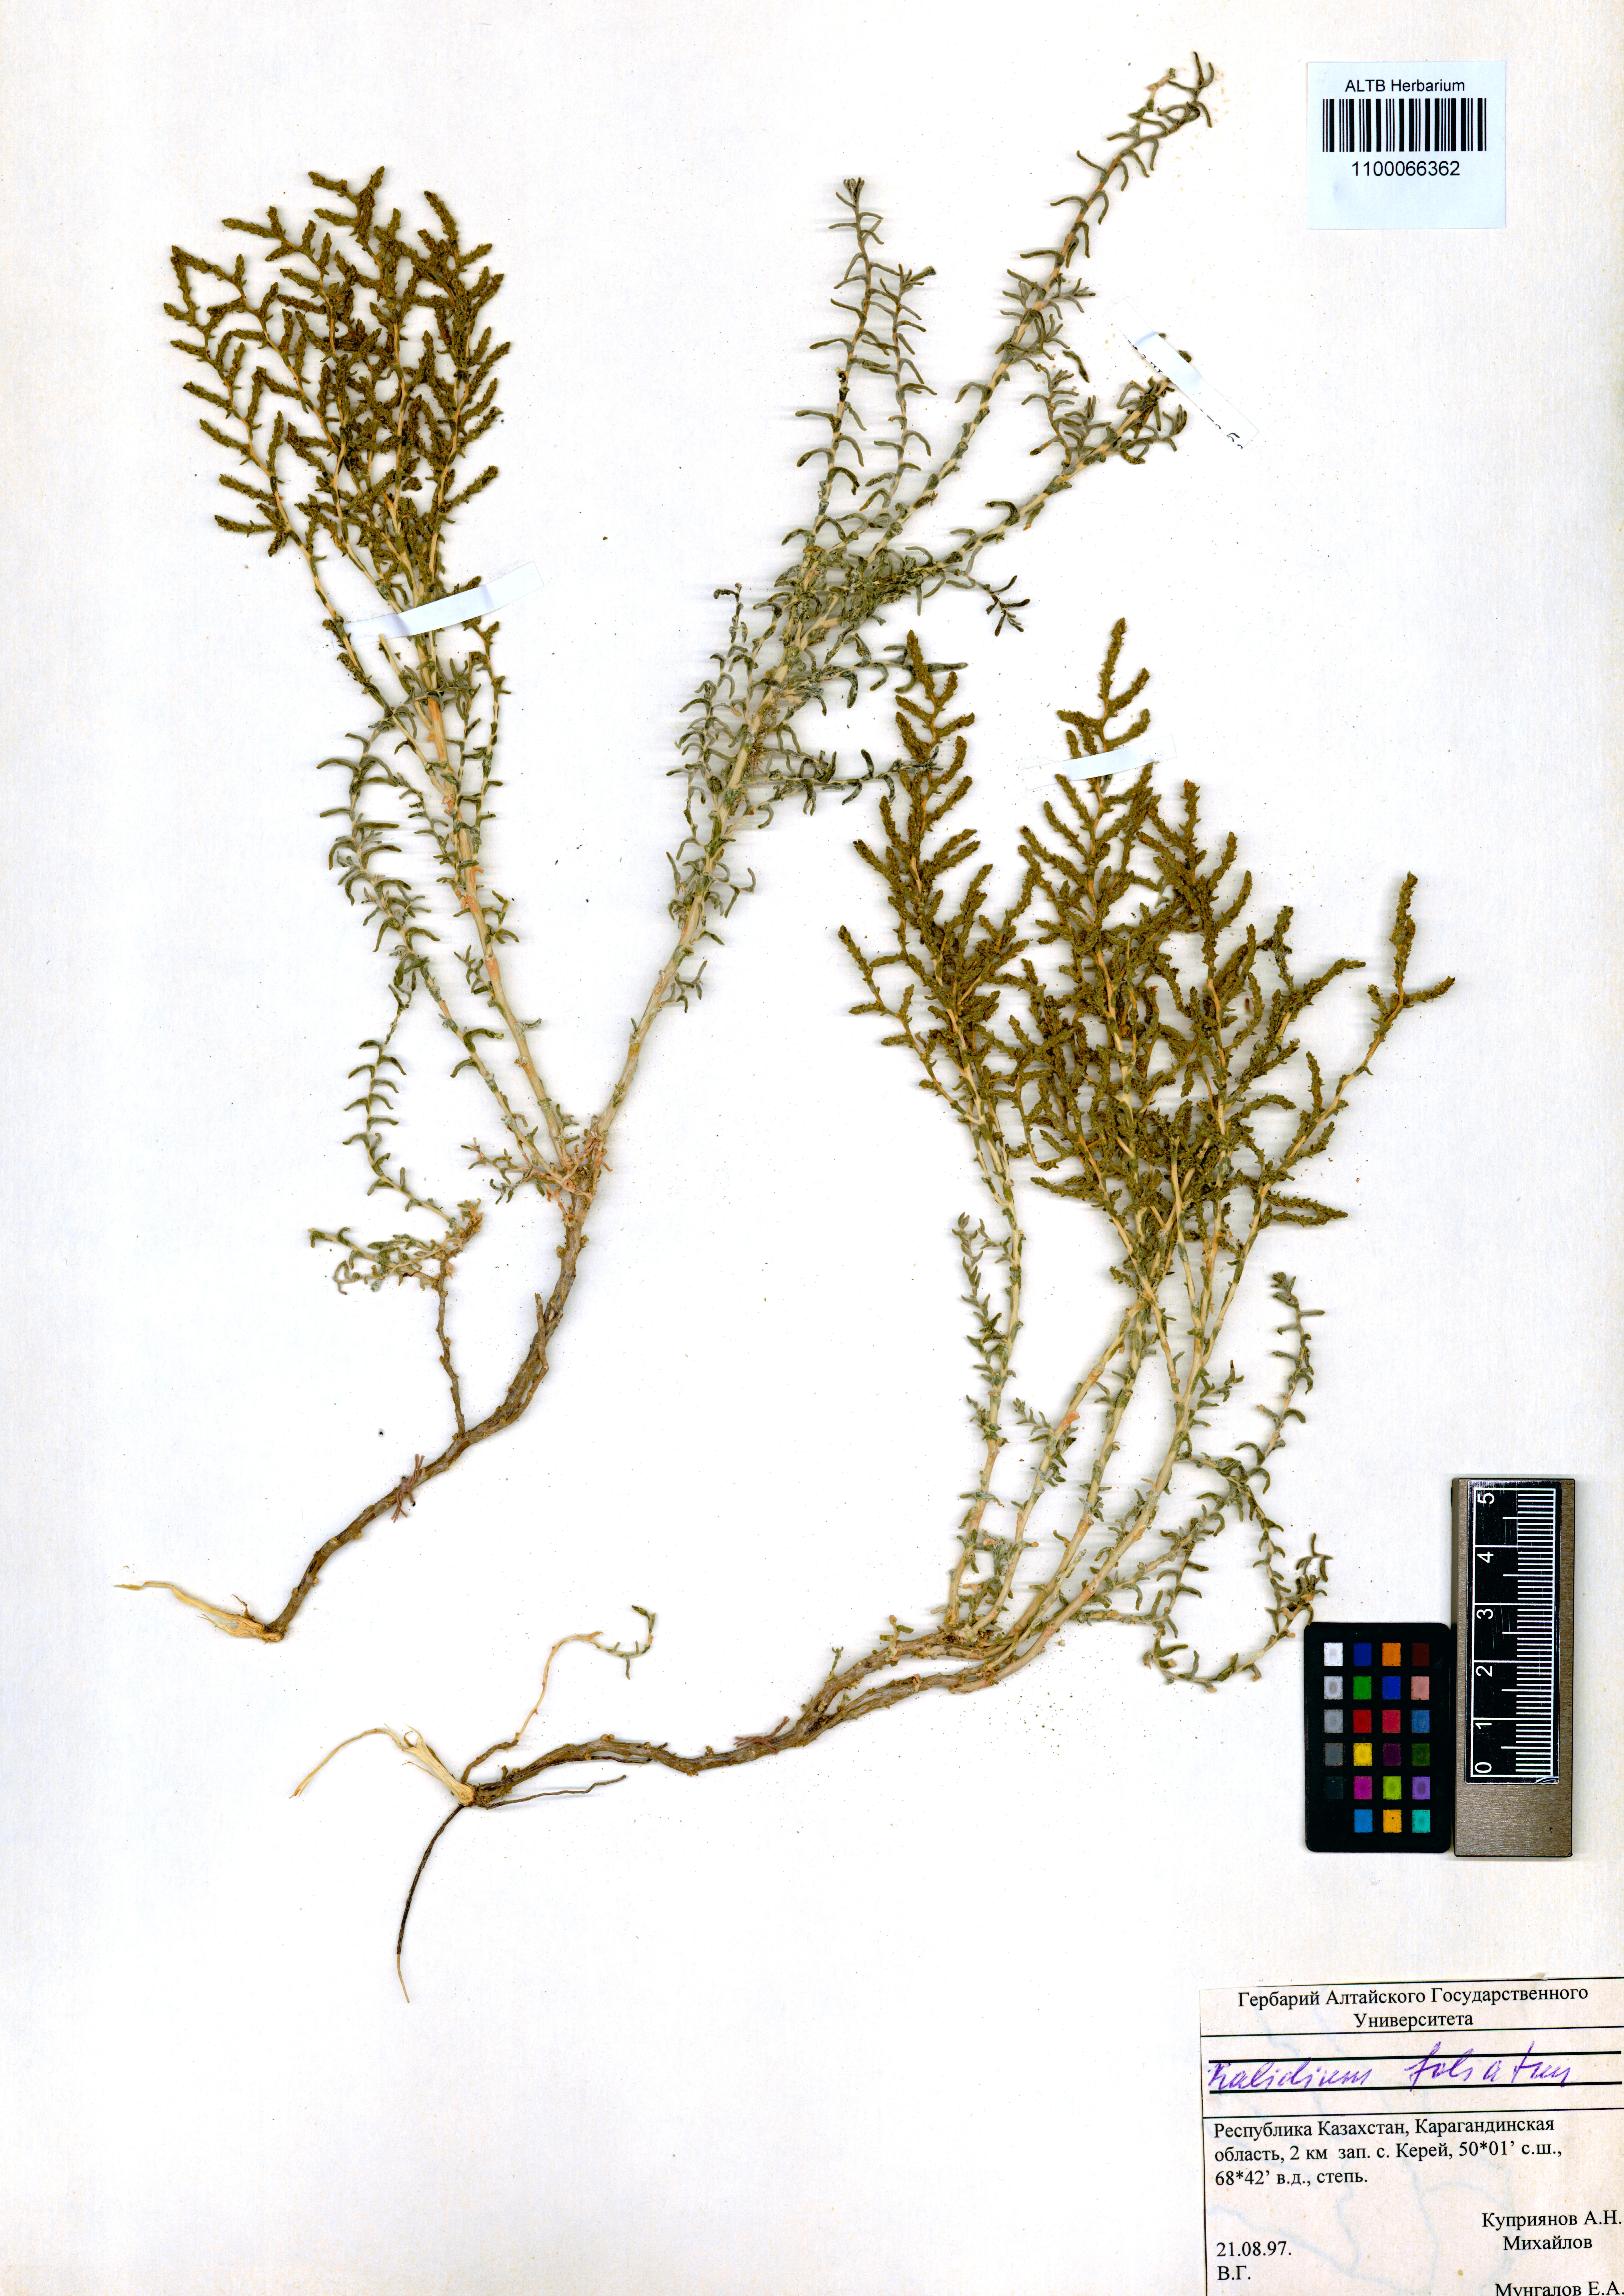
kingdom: Plantae
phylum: Tracheophyta
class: Magnoliopsida
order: Caryophyllales
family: Amaranthaceae
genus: Kalidium
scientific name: Kalidium foliatum
